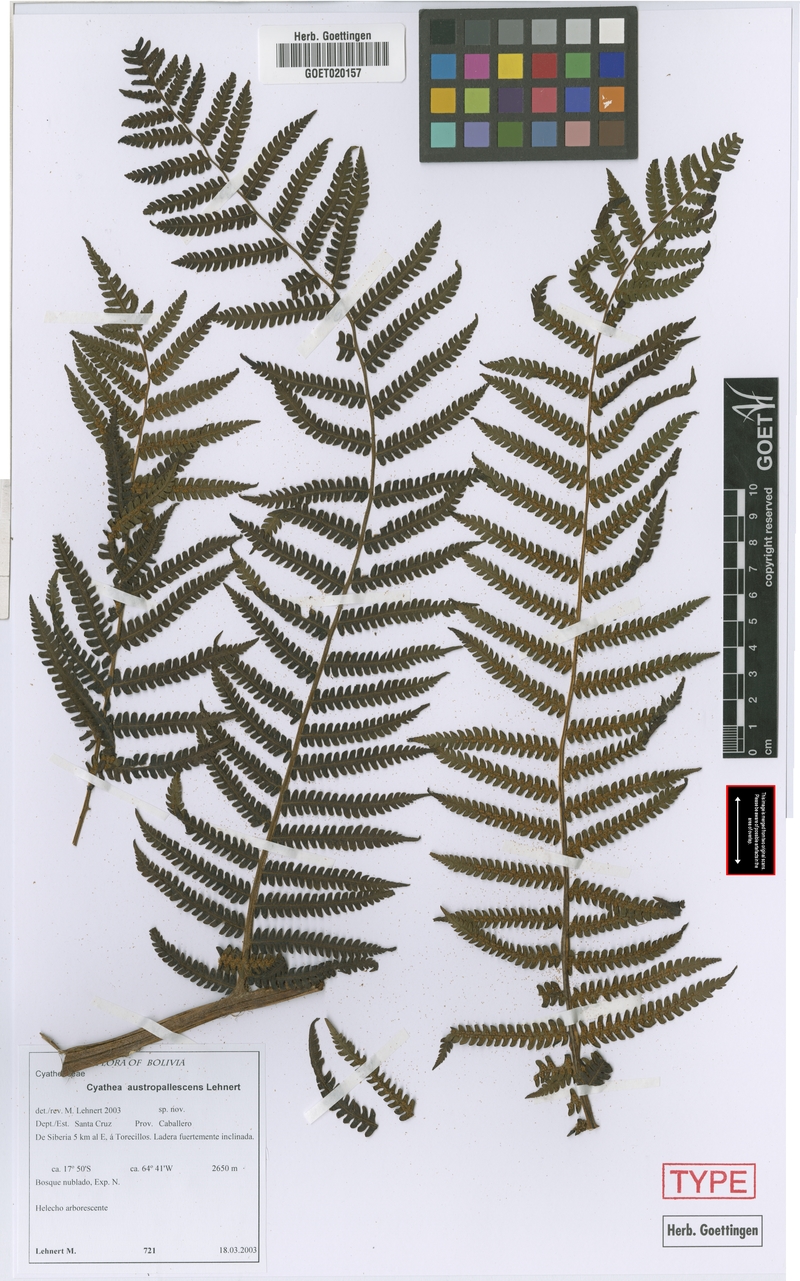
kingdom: Plantae
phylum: Tracheophyta
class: Polypodiopsida
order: Cyatheales
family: Cyatheaceae
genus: Cyathea
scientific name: Cyathea austropallescens
